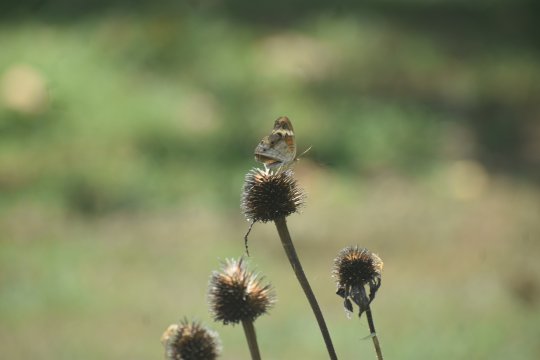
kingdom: Animalia
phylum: Arthropoda
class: Insecta
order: Lepidoptera
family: Nymphalidae
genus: Junonia
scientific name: Junonia coenia
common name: Common Buckeye
